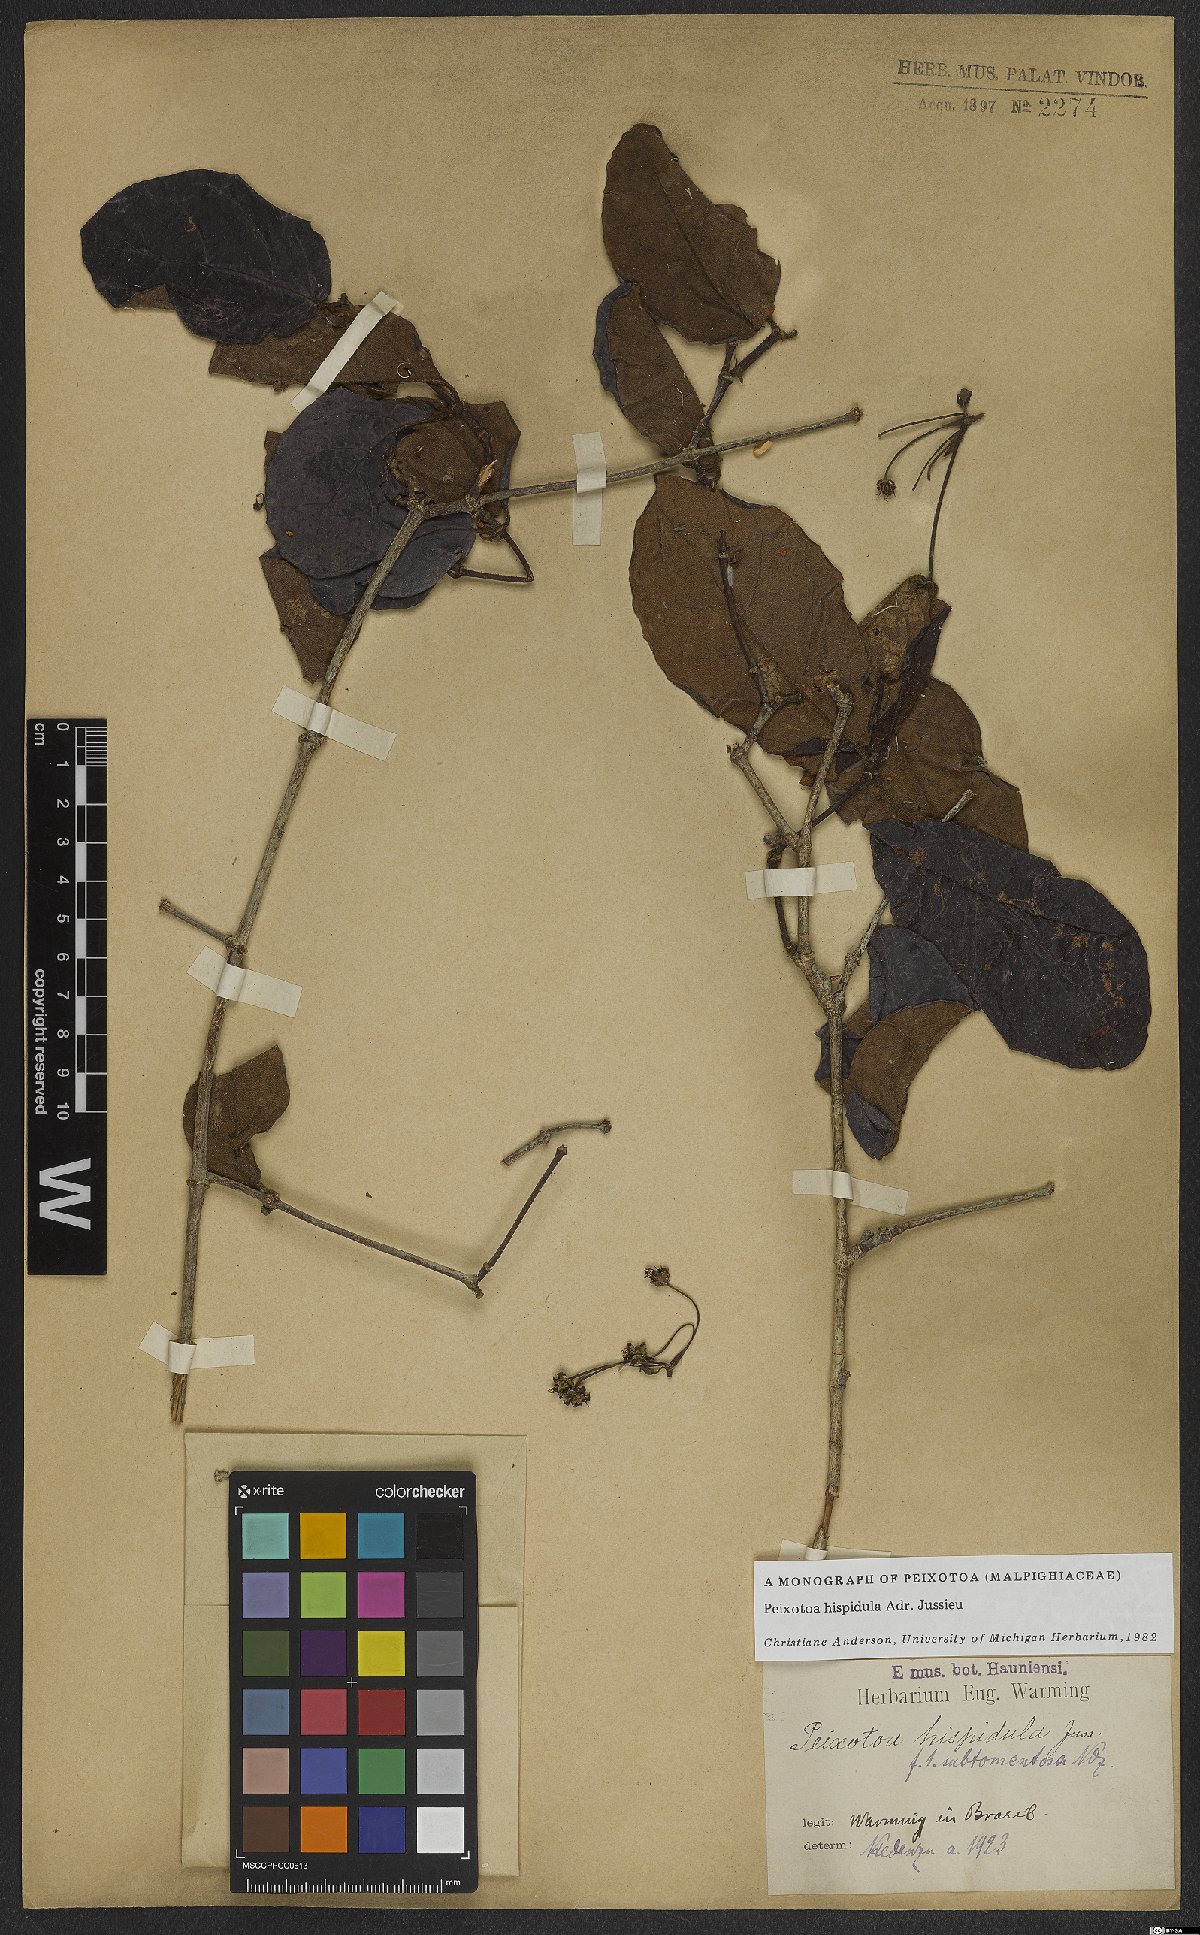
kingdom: Plantae
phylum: Tracheophyta
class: Magnoliopsida
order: Malpighiales
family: Malpighiaceae
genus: Peixotoa
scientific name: Peixotoa hispidula
